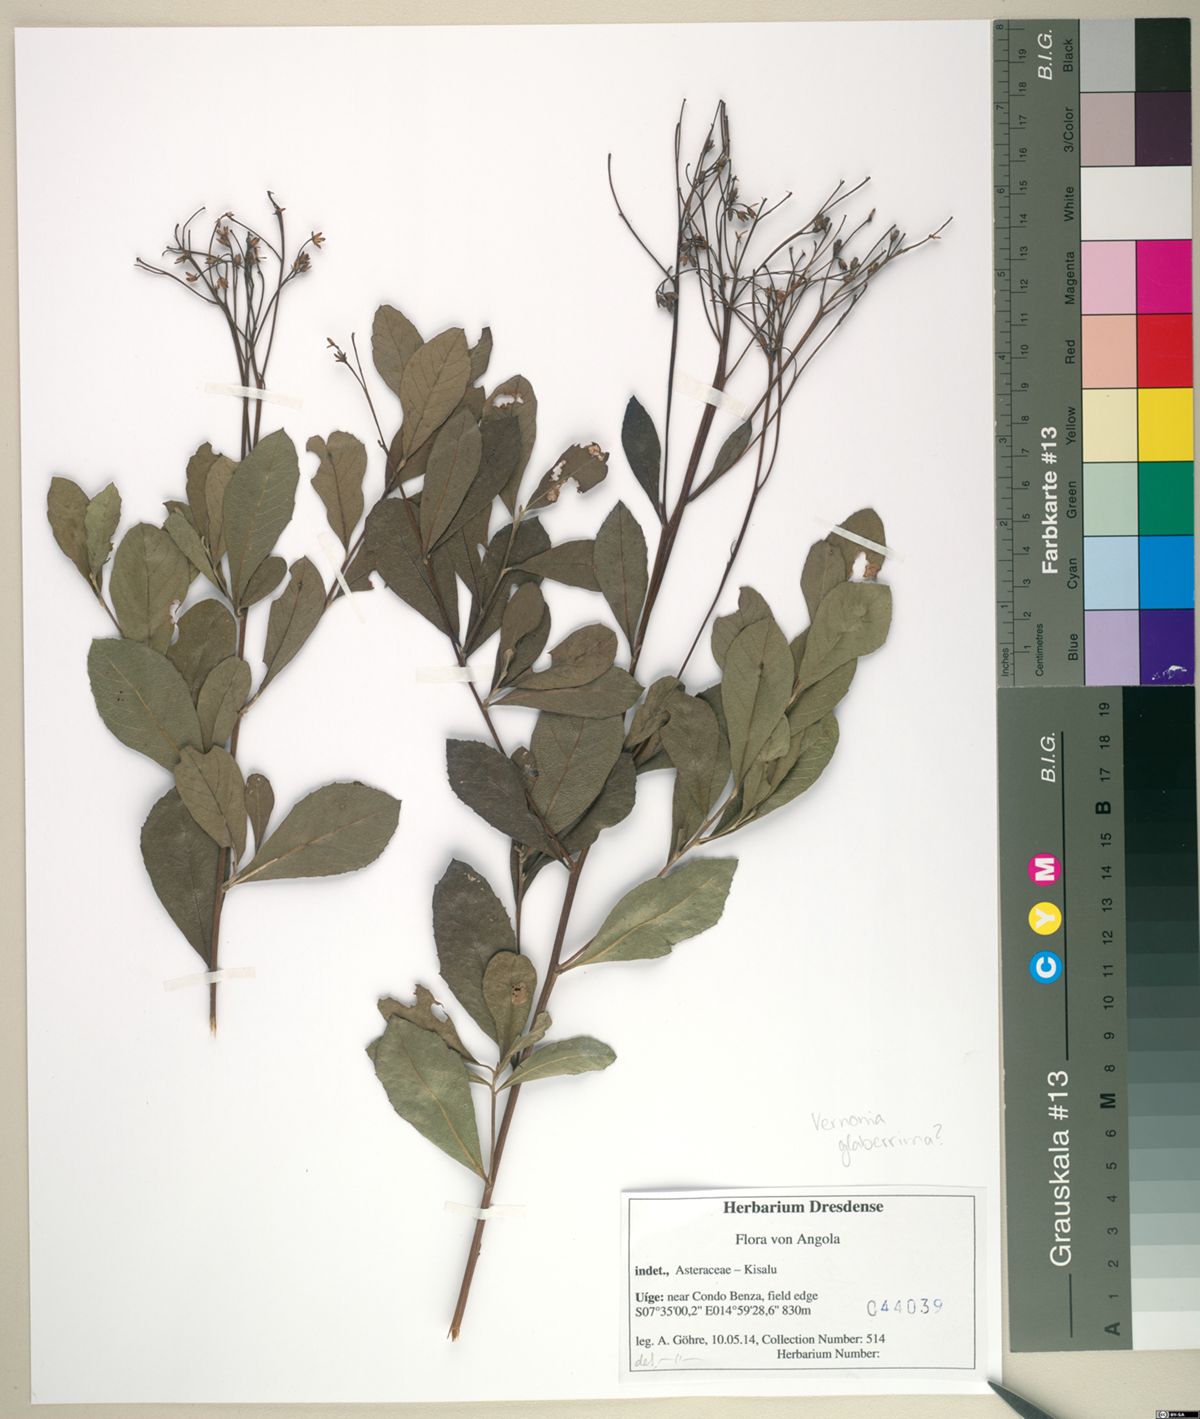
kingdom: Plantae
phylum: Tracheophyta
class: Magnoliopsida
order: Asterales
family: Asteraceae
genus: Gymnanthemum
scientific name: Gymnanthemum glaberrimum
